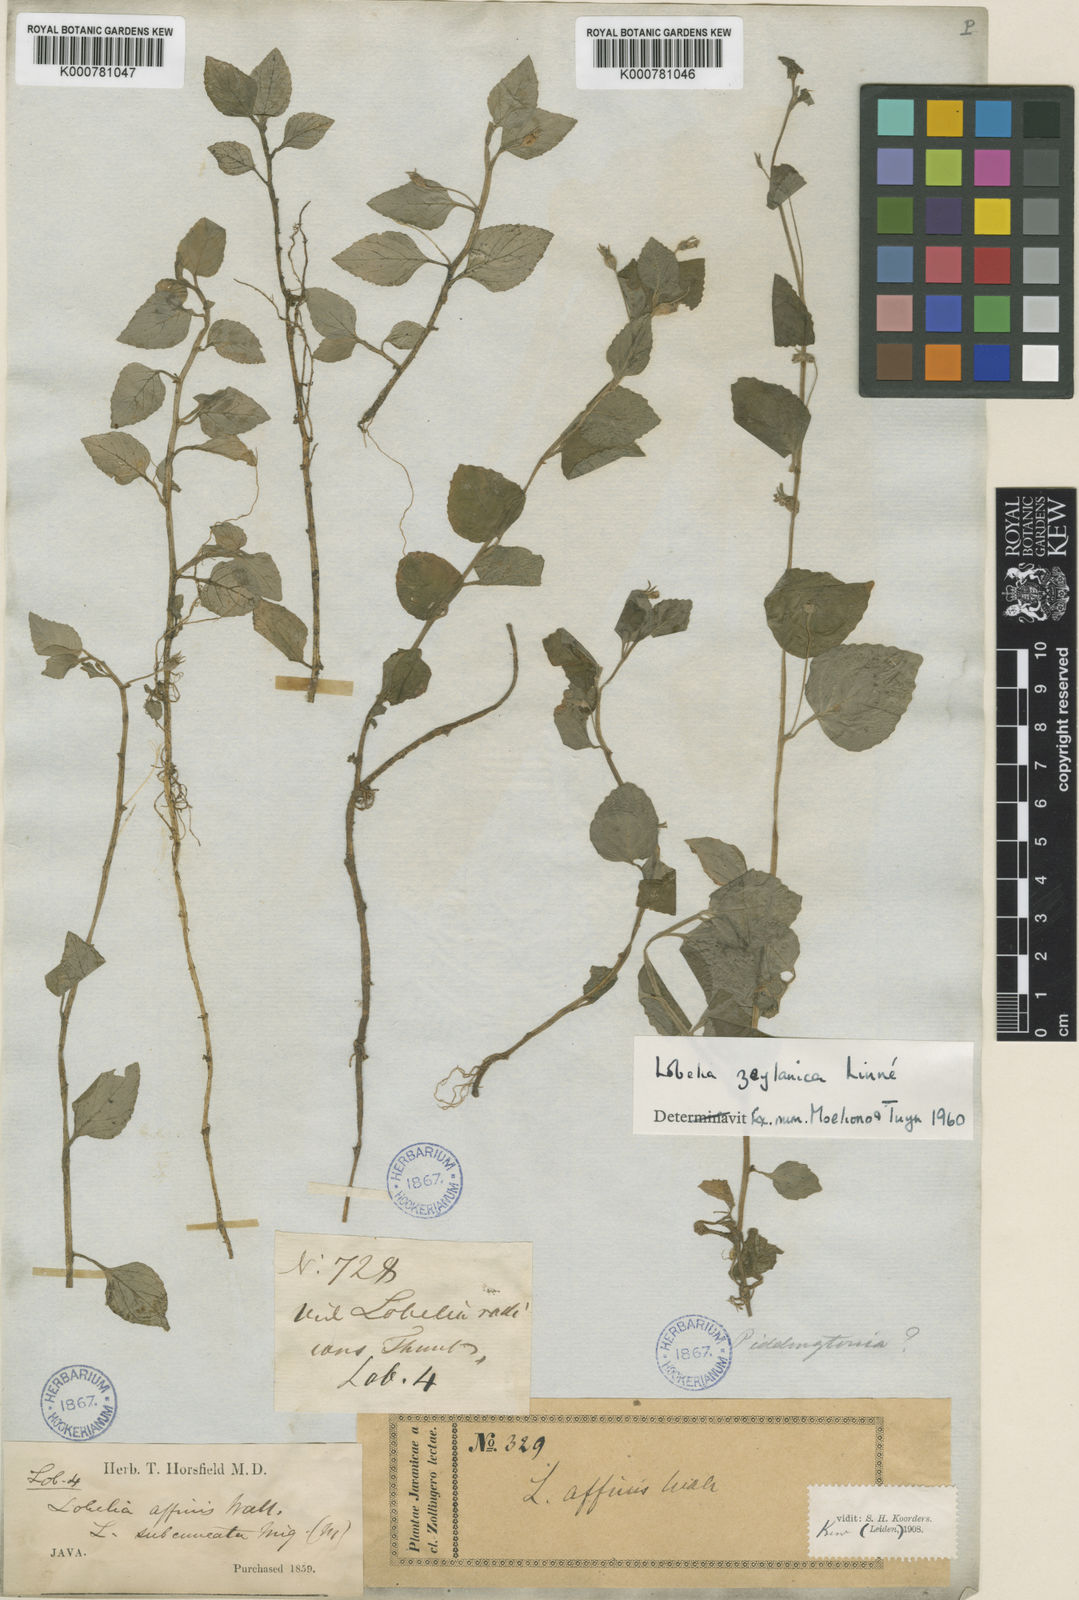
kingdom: Plantae
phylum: Tracheophyta
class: Magnoliopsida
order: Asterales
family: Campanulaceae
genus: Lobelia
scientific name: Lobelia zeylanica
